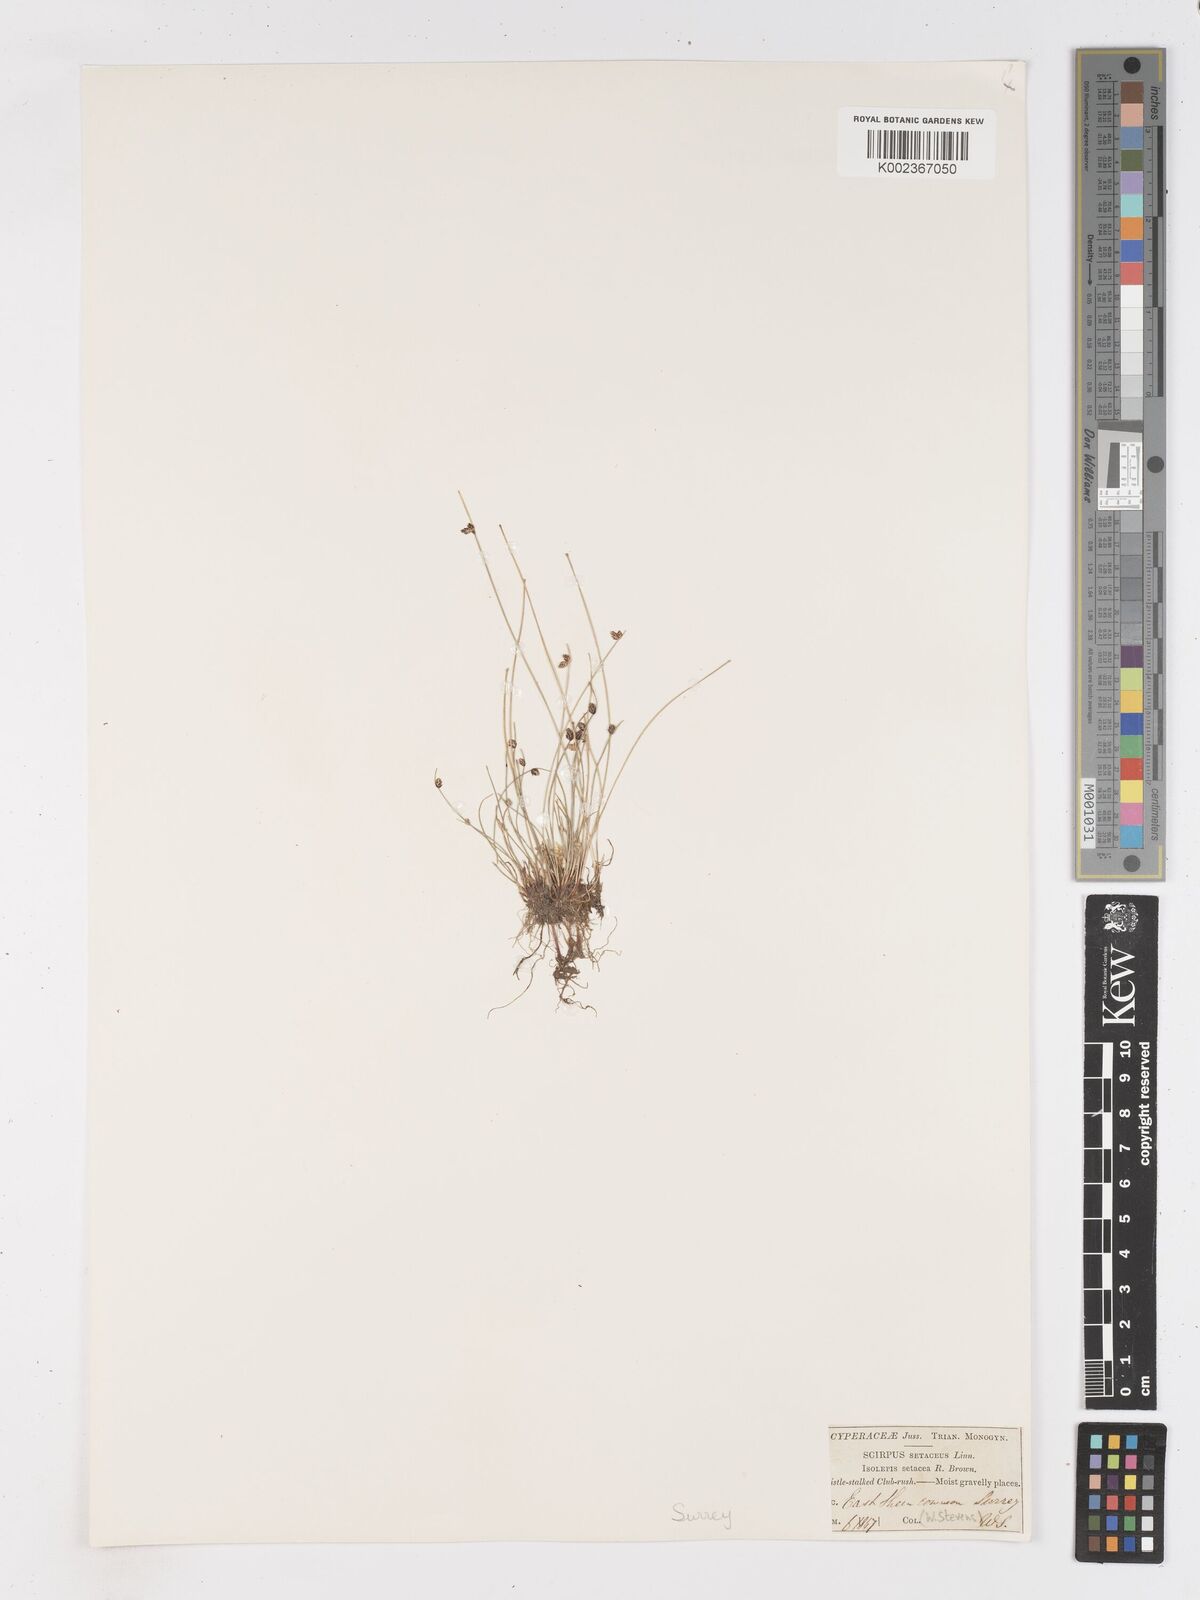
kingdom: Plantae
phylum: Tracheophyta
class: Liliopsida
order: Poales
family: Cyperaceae
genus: Isolepis
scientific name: Isolepis setacea
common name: Bristle club-rush
